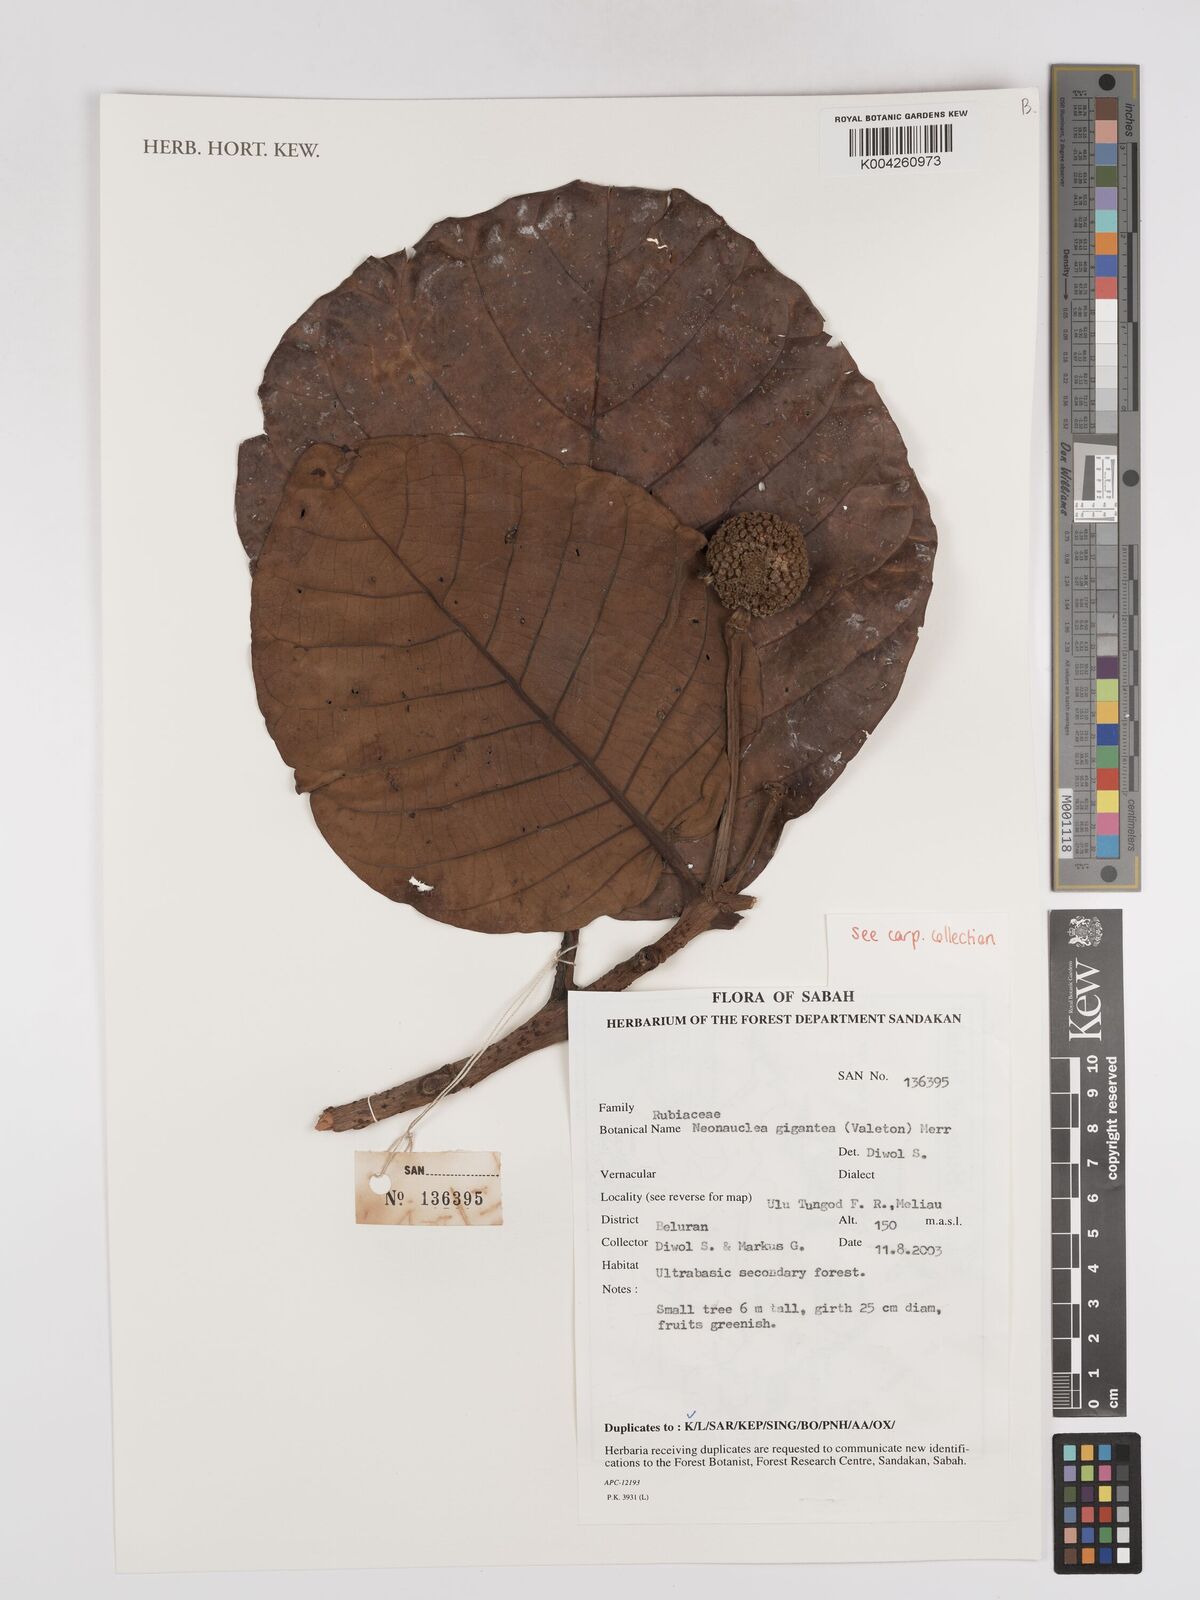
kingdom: Plantae
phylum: Tracheophyta
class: Magnoliopsida
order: Gentianales
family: Rubiaceae
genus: Neonauclea
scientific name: Neonauclea gigantea
